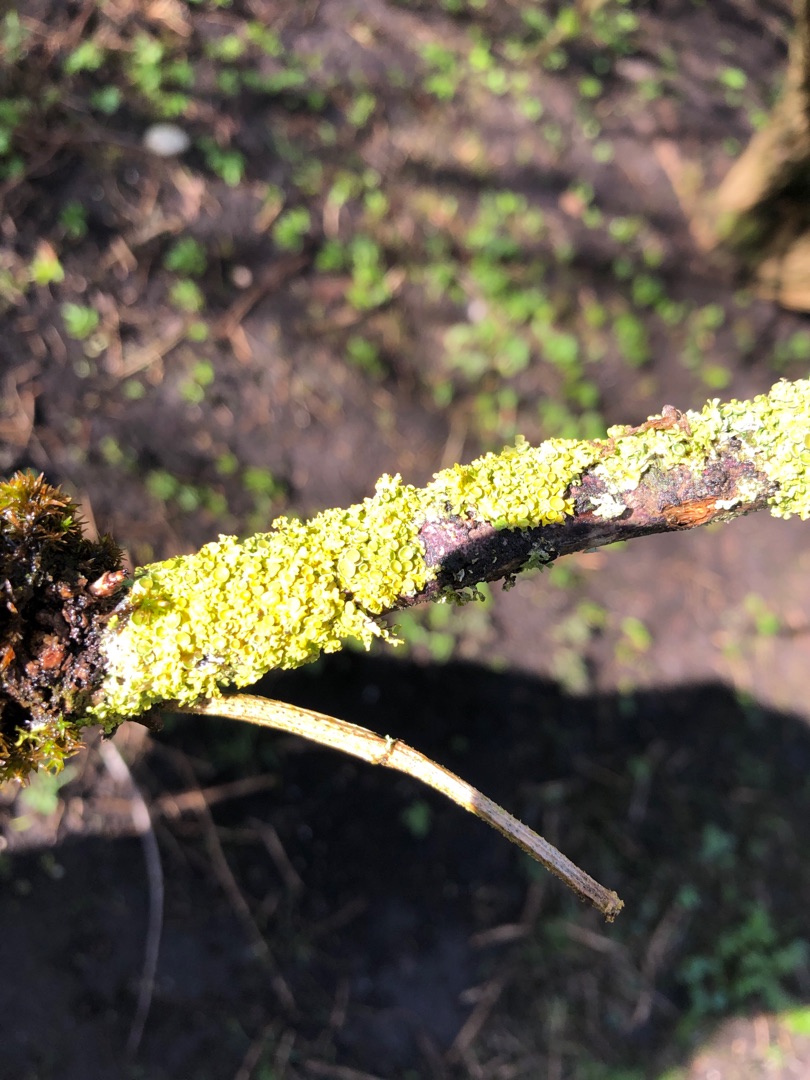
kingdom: Fungi
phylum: Ascomycota
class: Lecanoromycetes
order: Teloschistales
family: Teloschistaceae
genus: Xanthoria
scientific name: Xanthoria parietina
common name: Almindelig væggelav
